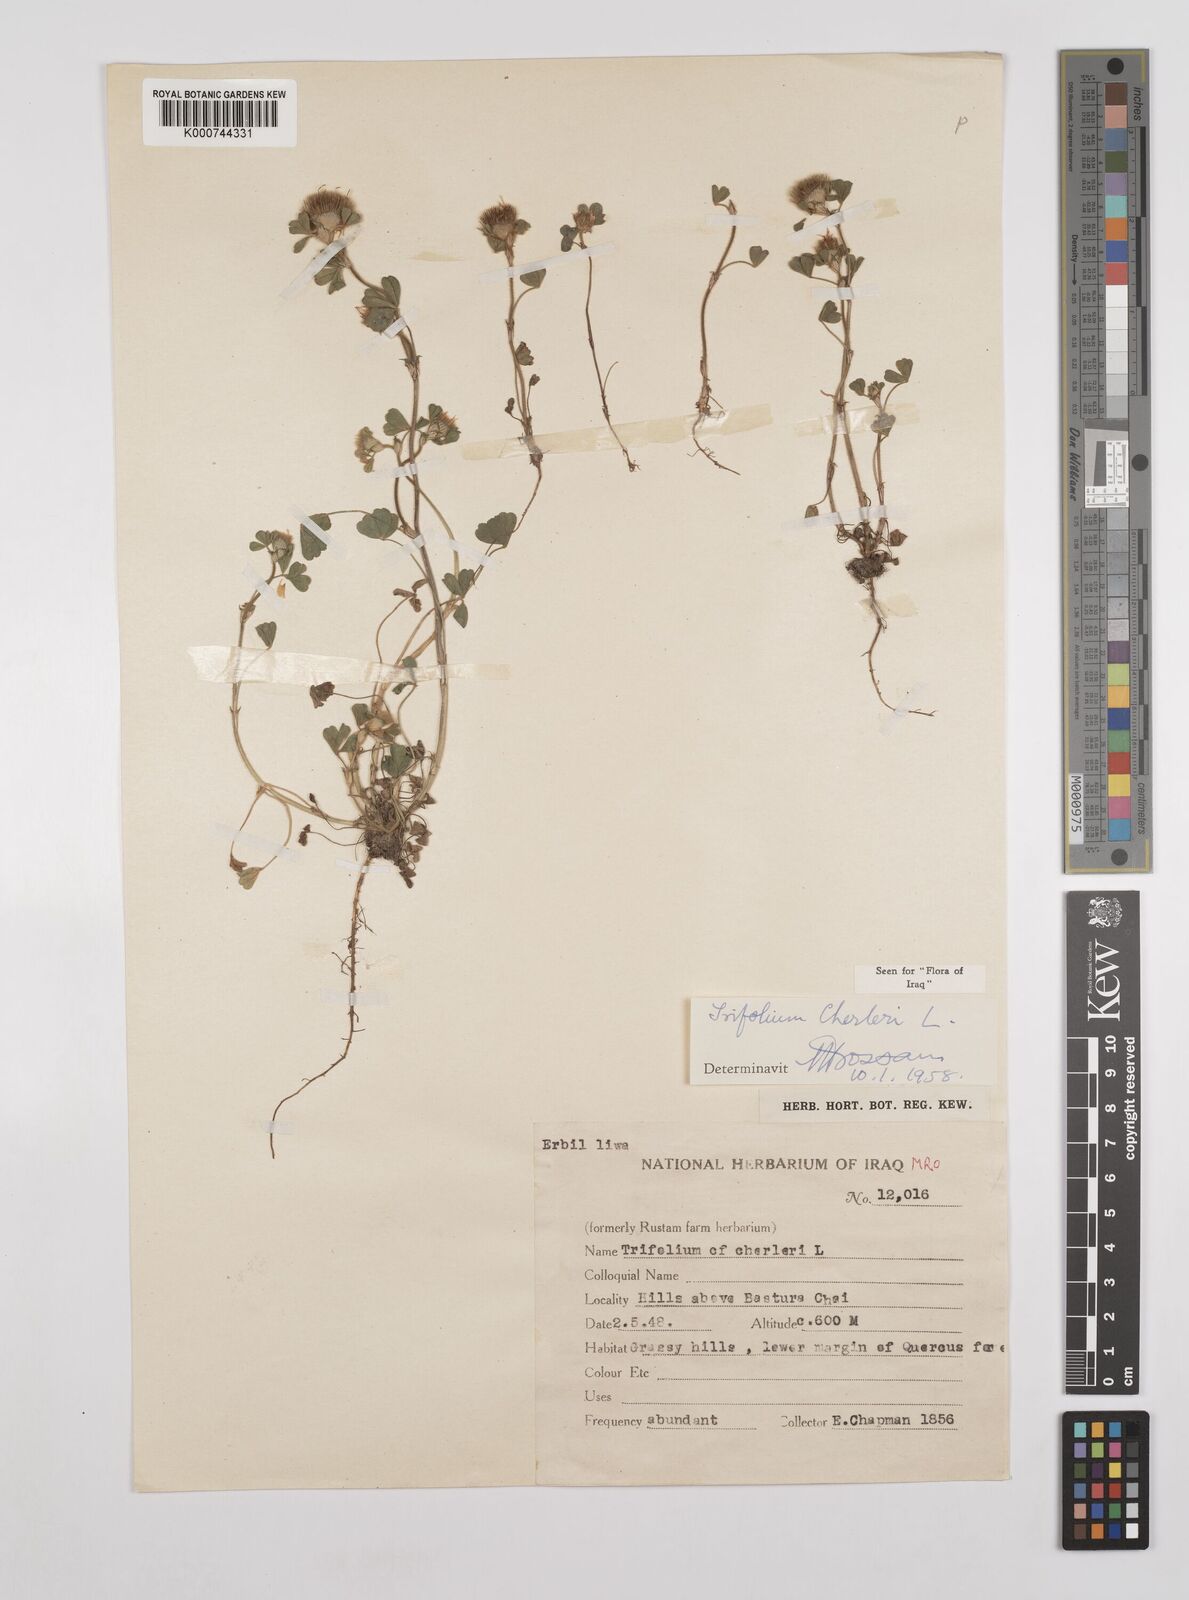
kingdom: Plantae
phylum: Tracheophyta
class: Magnoliopsida
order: Fabales
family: Fabaceae
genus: Trifolium
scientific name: Trifolium cherleri
